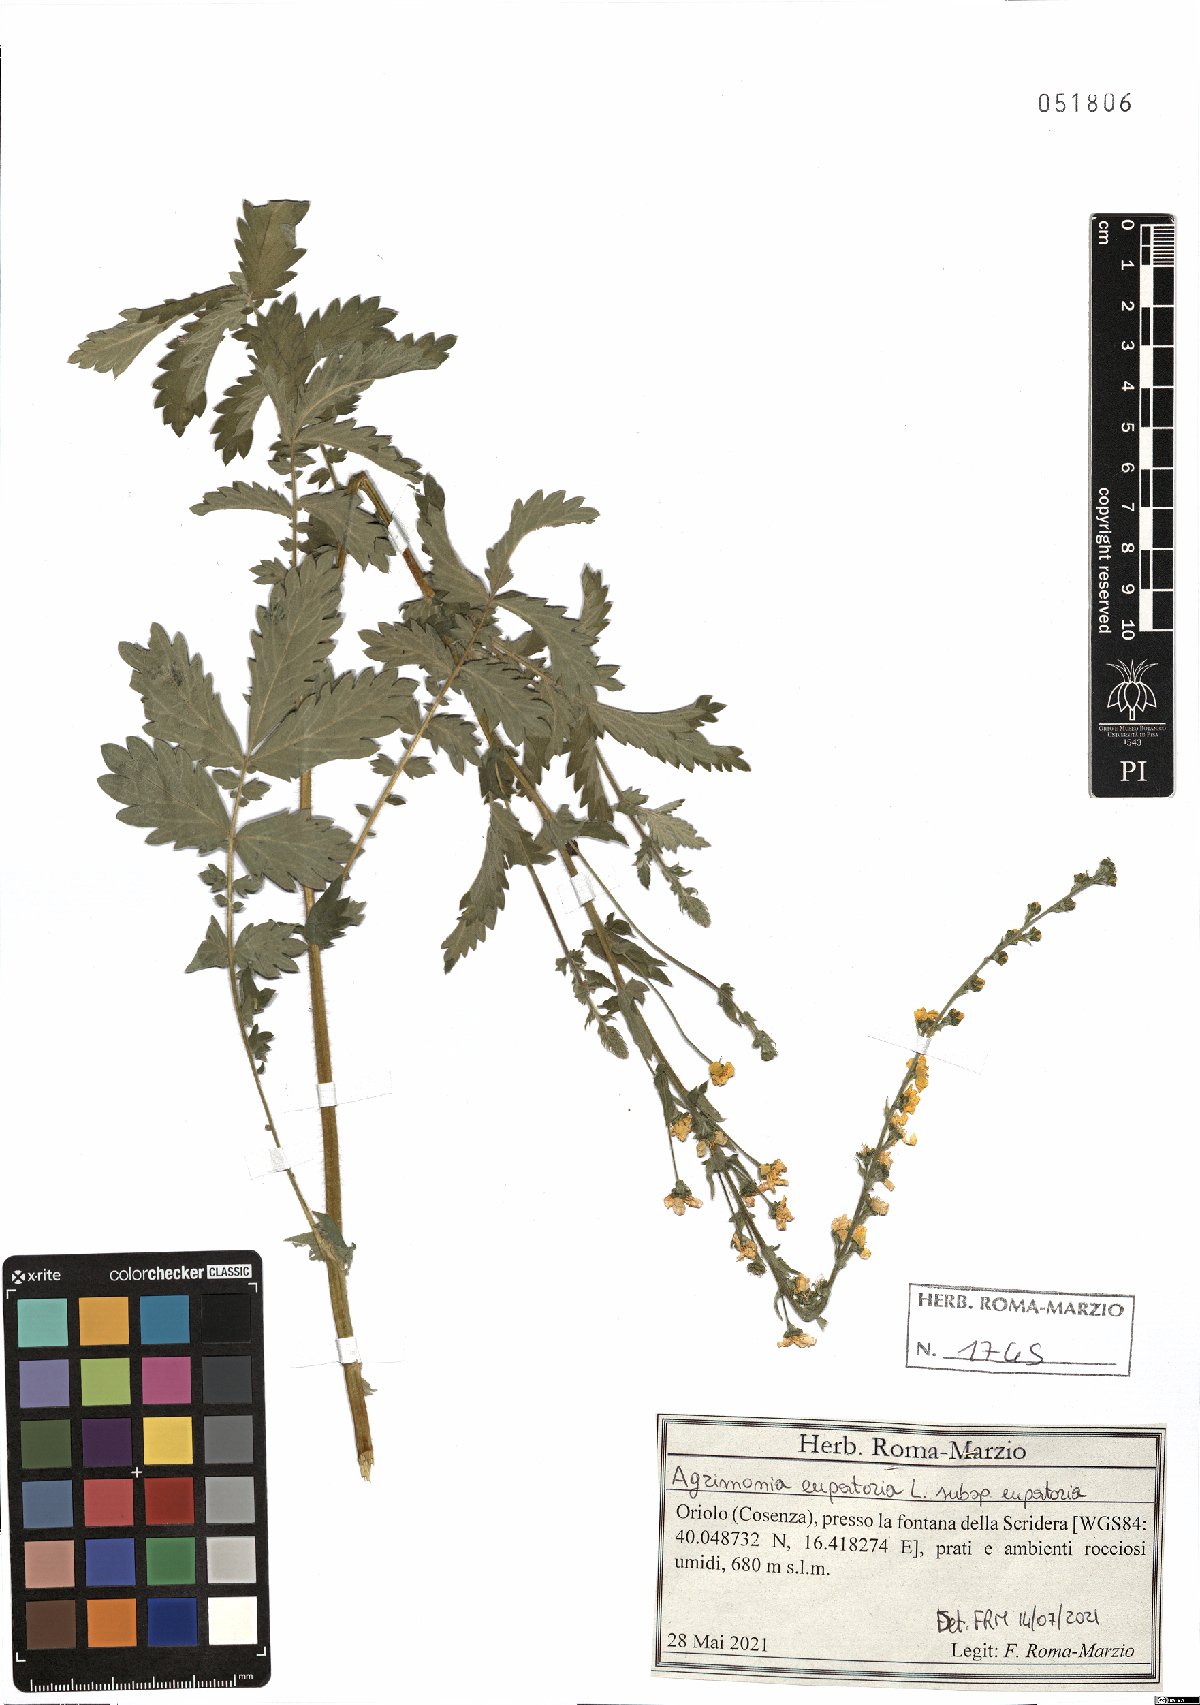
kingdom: Plantae
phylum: Tracheophyta
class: Magnoliopsida
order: Rosales
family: Rosaceae
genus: Agrimonia
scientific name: Agrimonia eupatoria
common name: Agrimony
